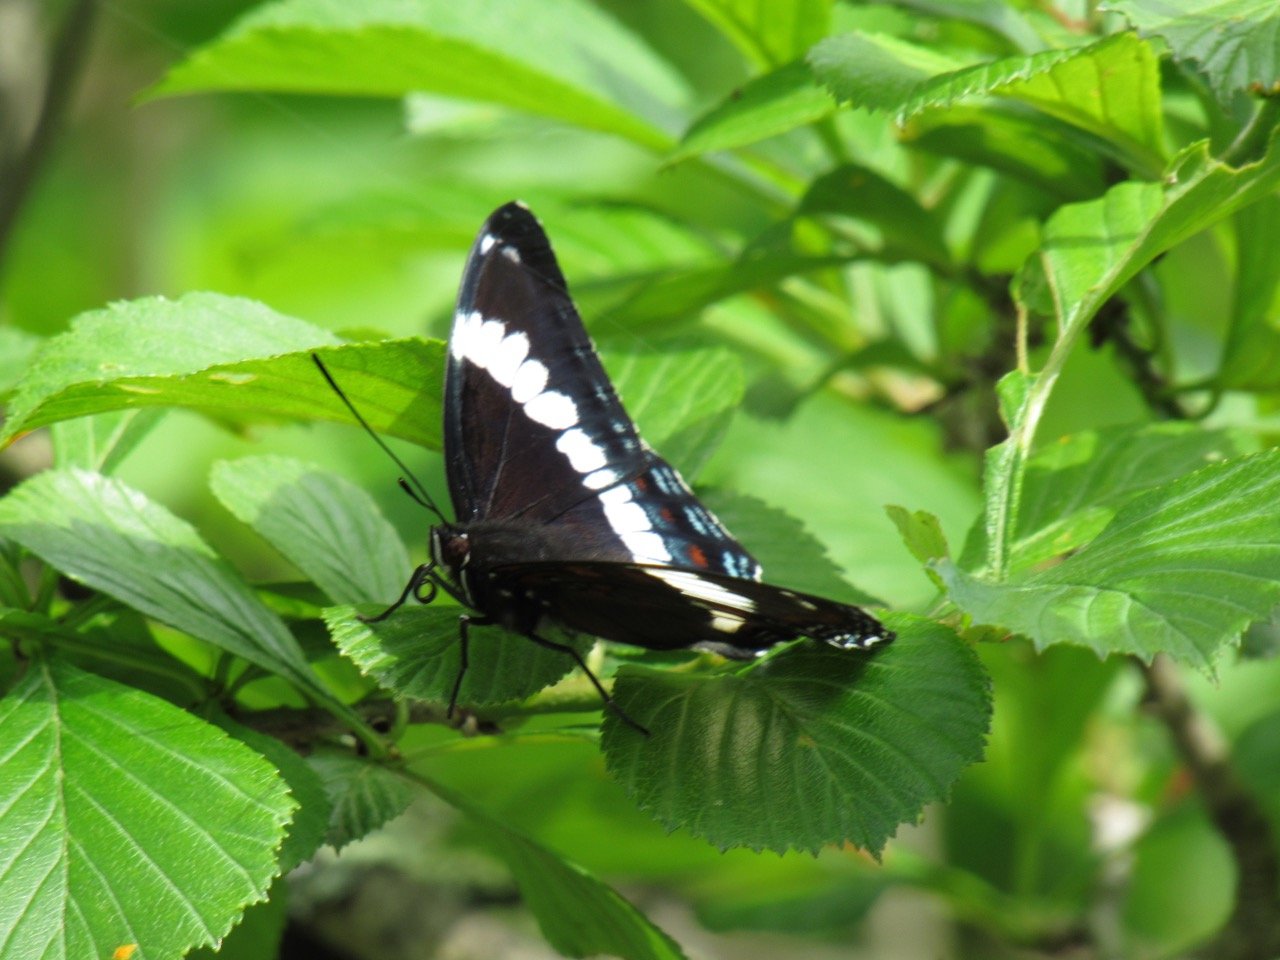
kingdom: Animalia
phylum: Arthropoda
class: Insecta
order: Lepidoptera
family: Nymphalidae
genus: Limenitis
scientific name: Limenitis arthemis
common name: Red-spotted Admiral
